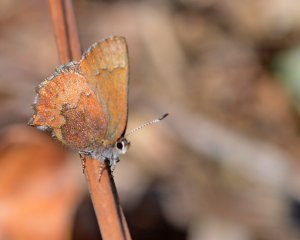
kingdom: Animalia
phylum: Arthropoda
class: Insecta
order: Lepidoptera
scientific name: Lepidoptera
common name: Butterflies
